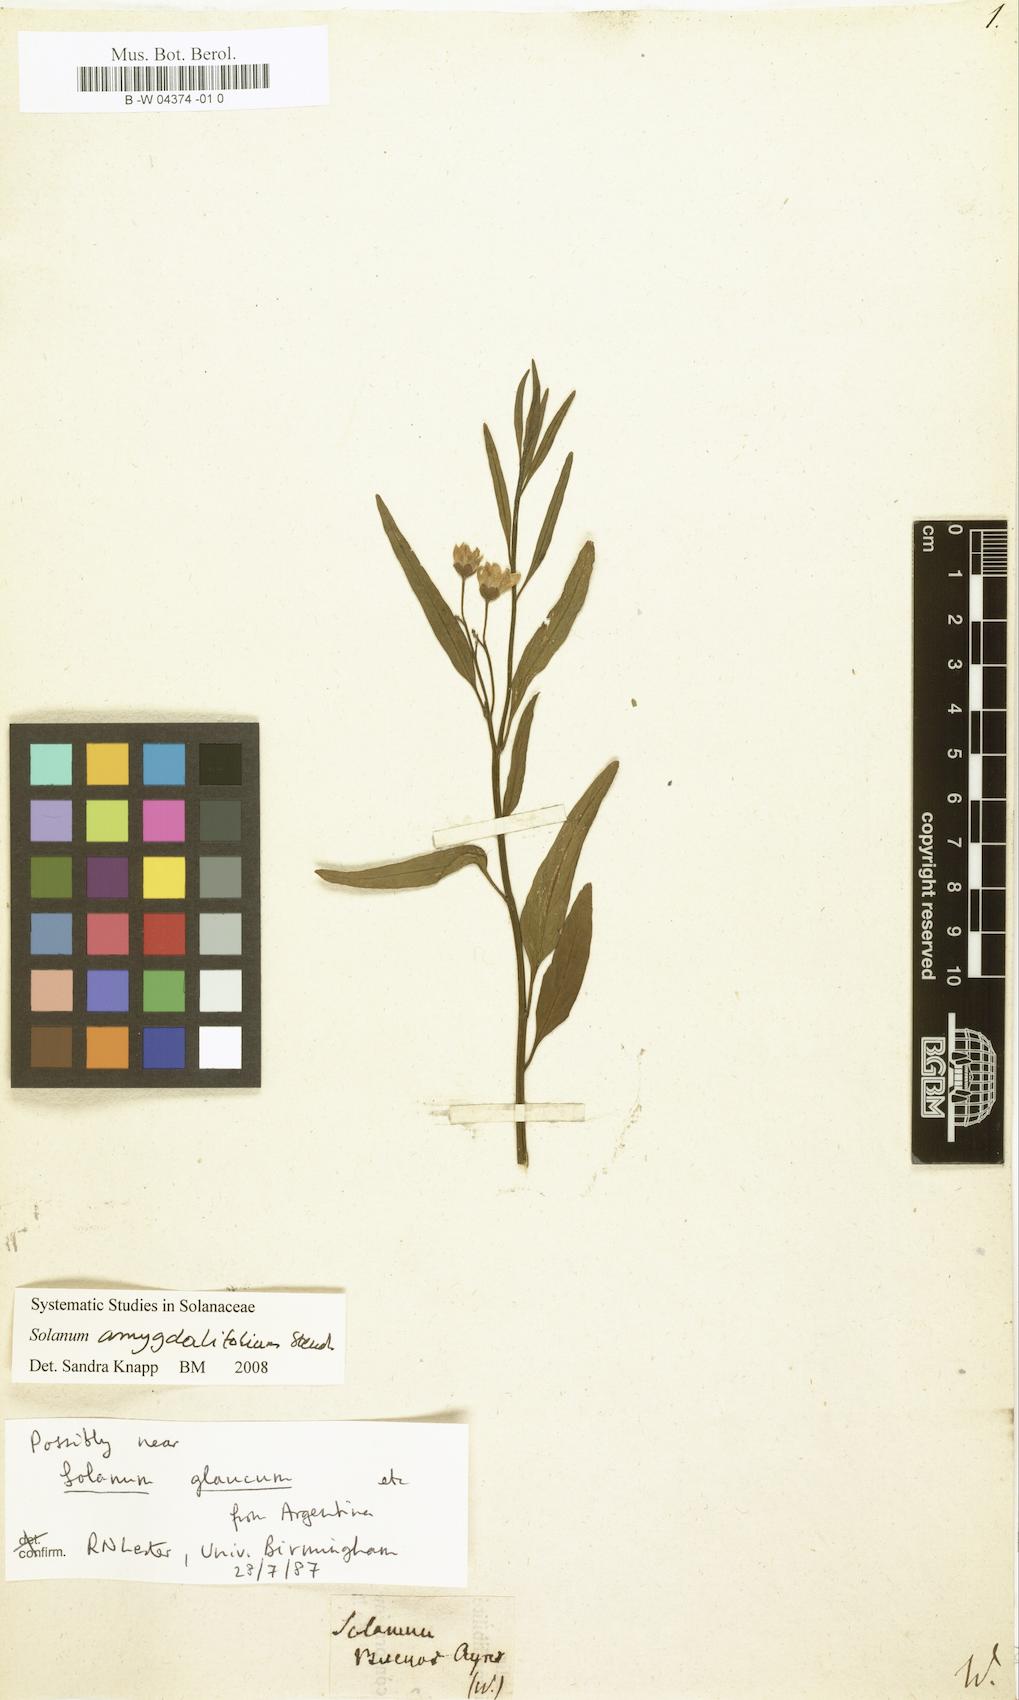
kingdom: Plantae
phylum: Tracheophyta
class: Magnoliopsida
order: Solanales
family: Solanaceae
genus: Solanum
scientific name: Solanum anomalum
